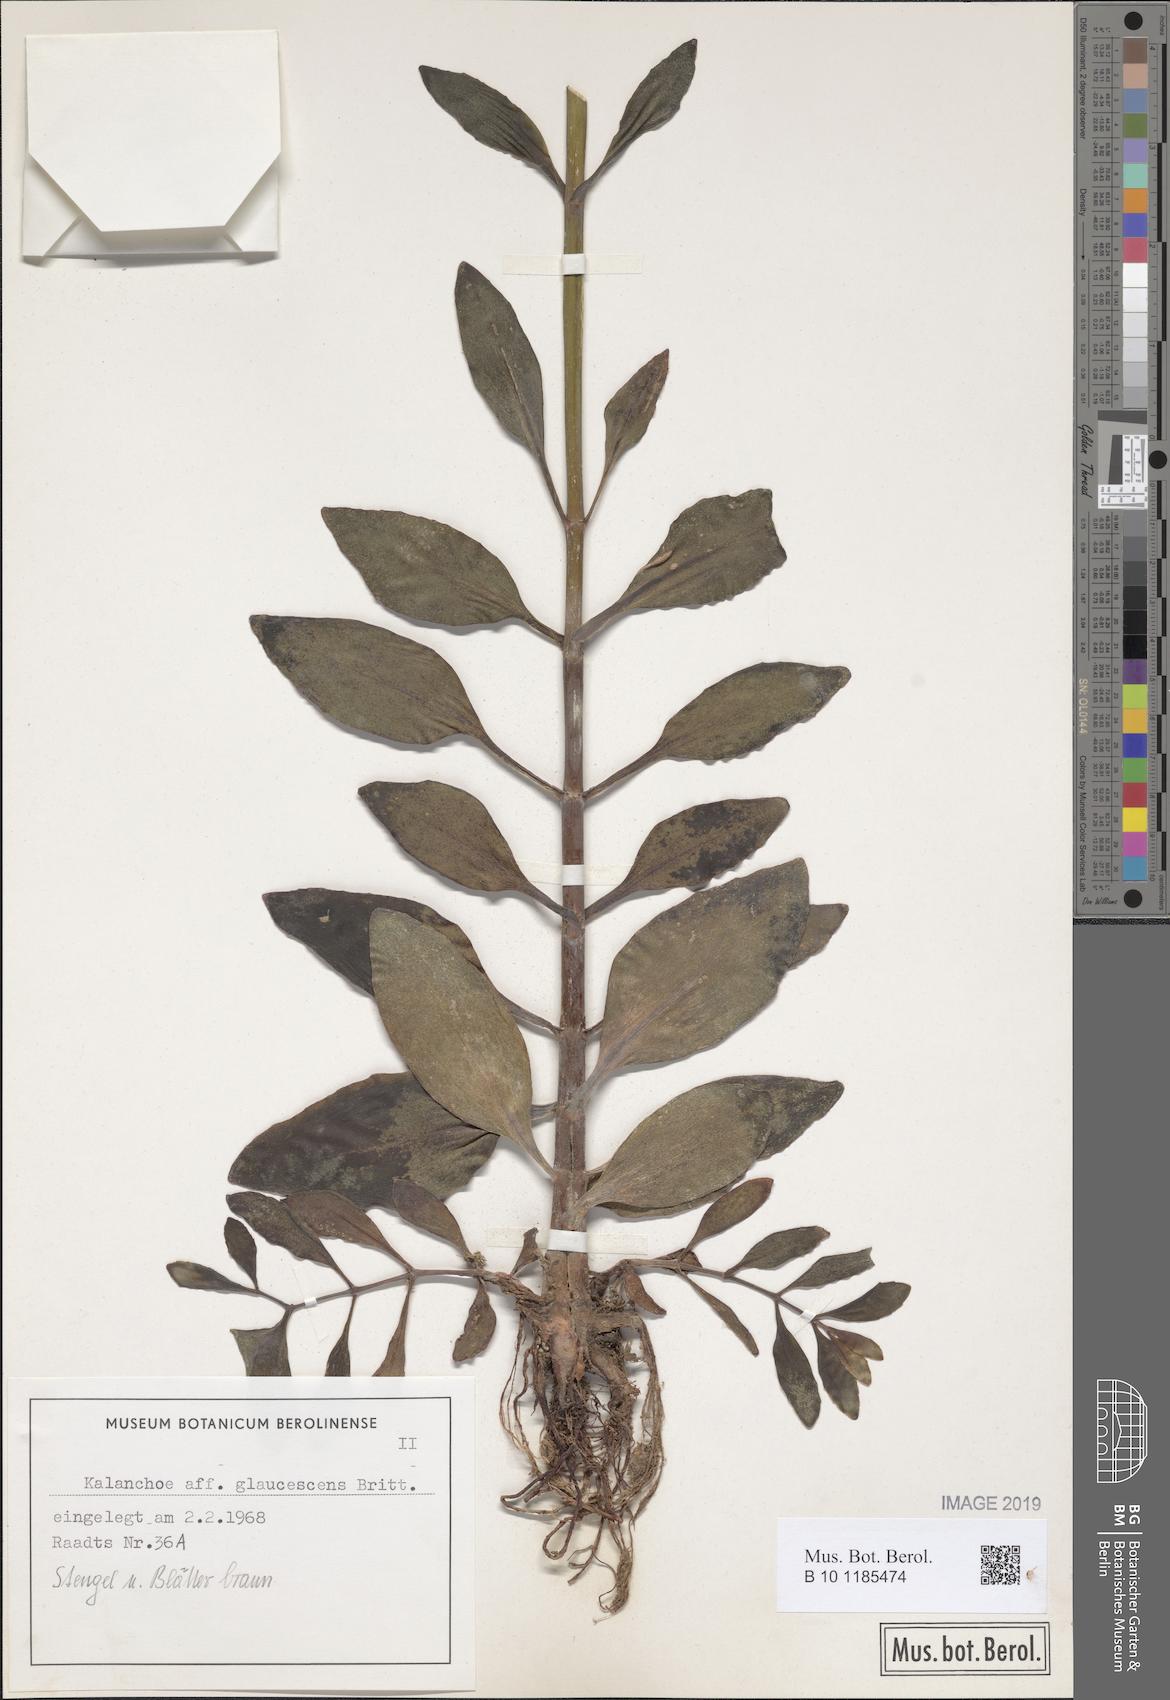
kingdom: Plantae
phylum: Tracheophyta
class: Magnoliopsida
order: Saxifragales
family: Crassulaceae
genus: Kalanchoe
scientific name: Kalanchoe glaucescens
